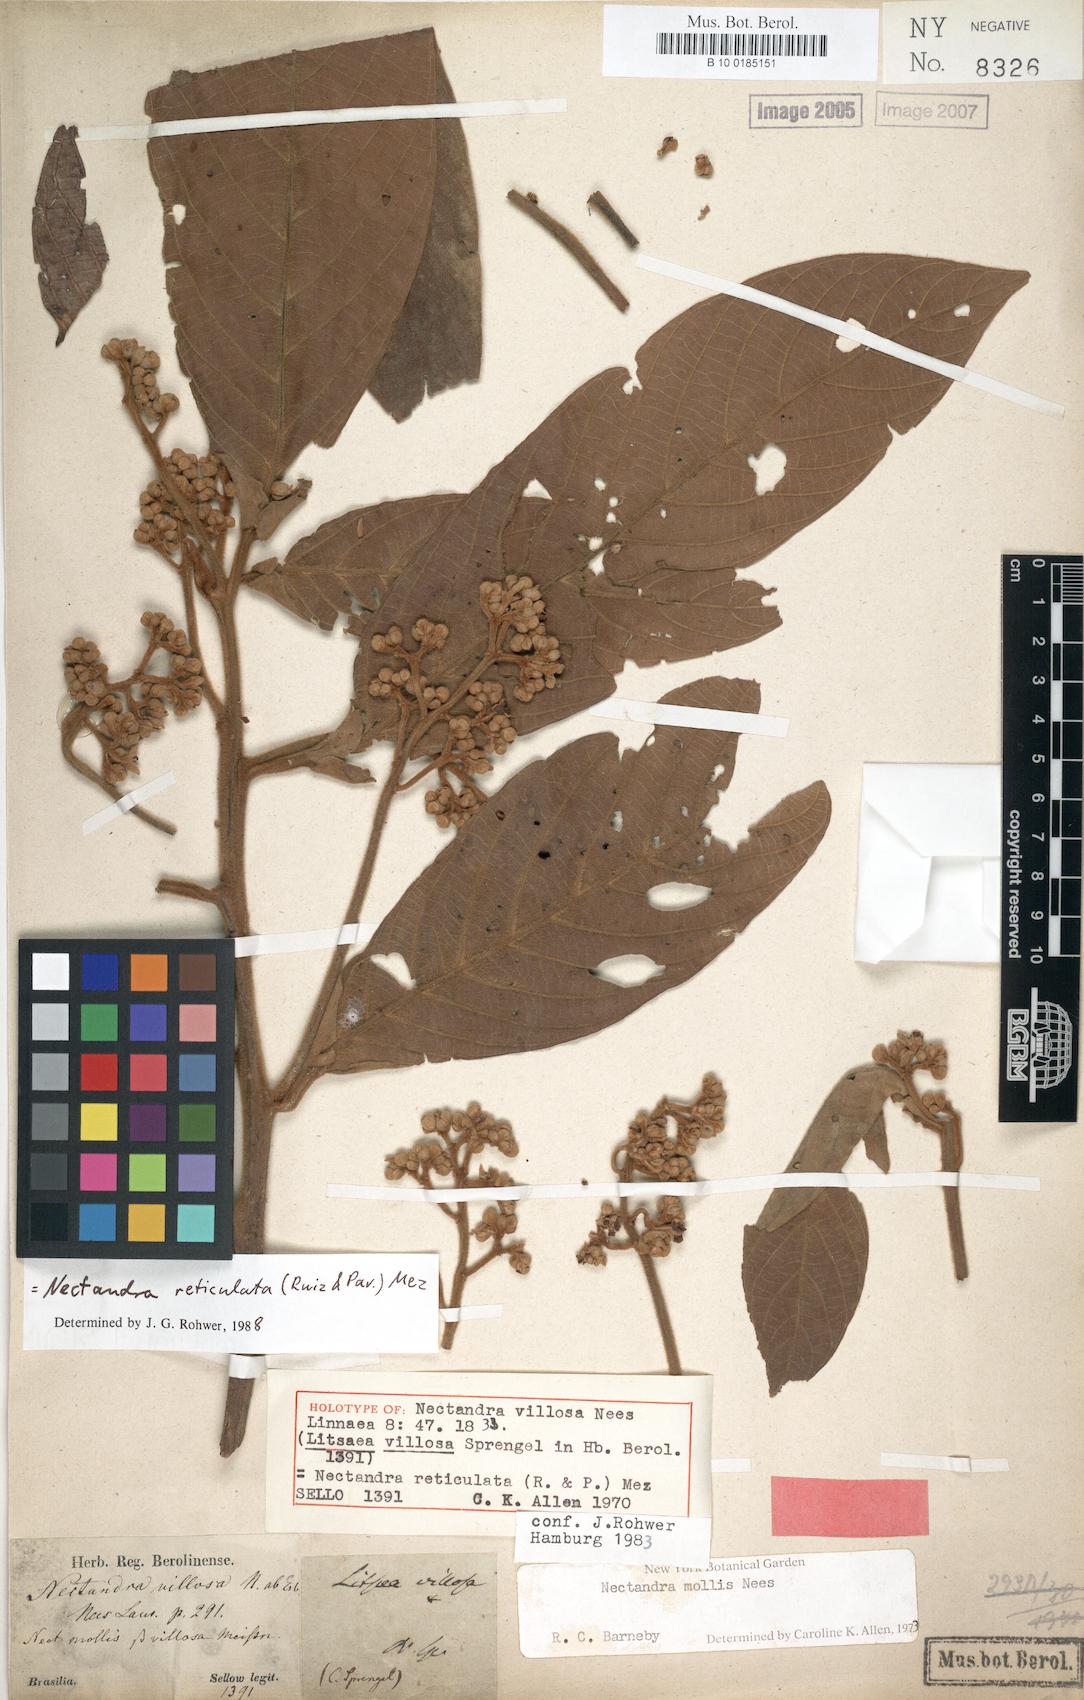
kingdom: Plantae
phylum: Tracheophyta
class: Magnoliopsida
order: Laurales
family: Lauraceae
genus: Nectandra
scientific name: Nectandra villosa
